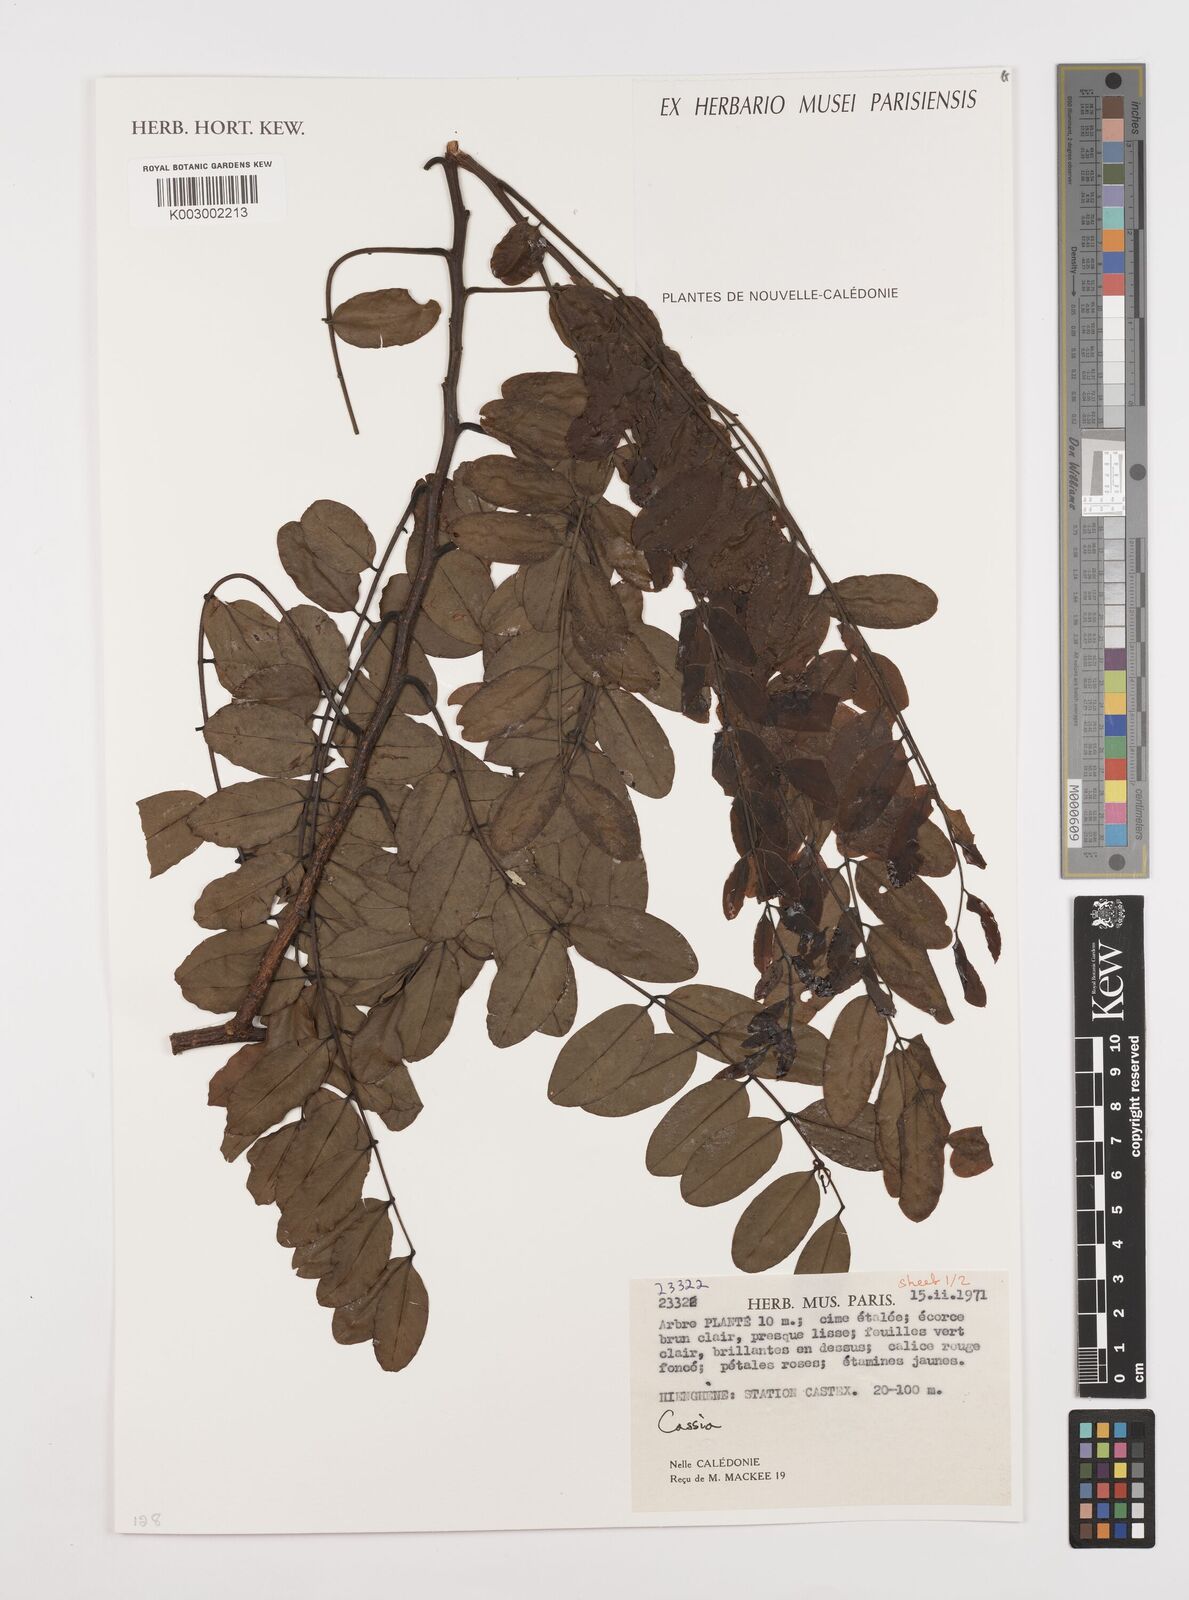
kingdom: Plantae
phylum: Tracheophyta
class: Magnoliopsida
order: Fabales
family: Fabaceae
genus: Cassia
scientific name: Cassia
